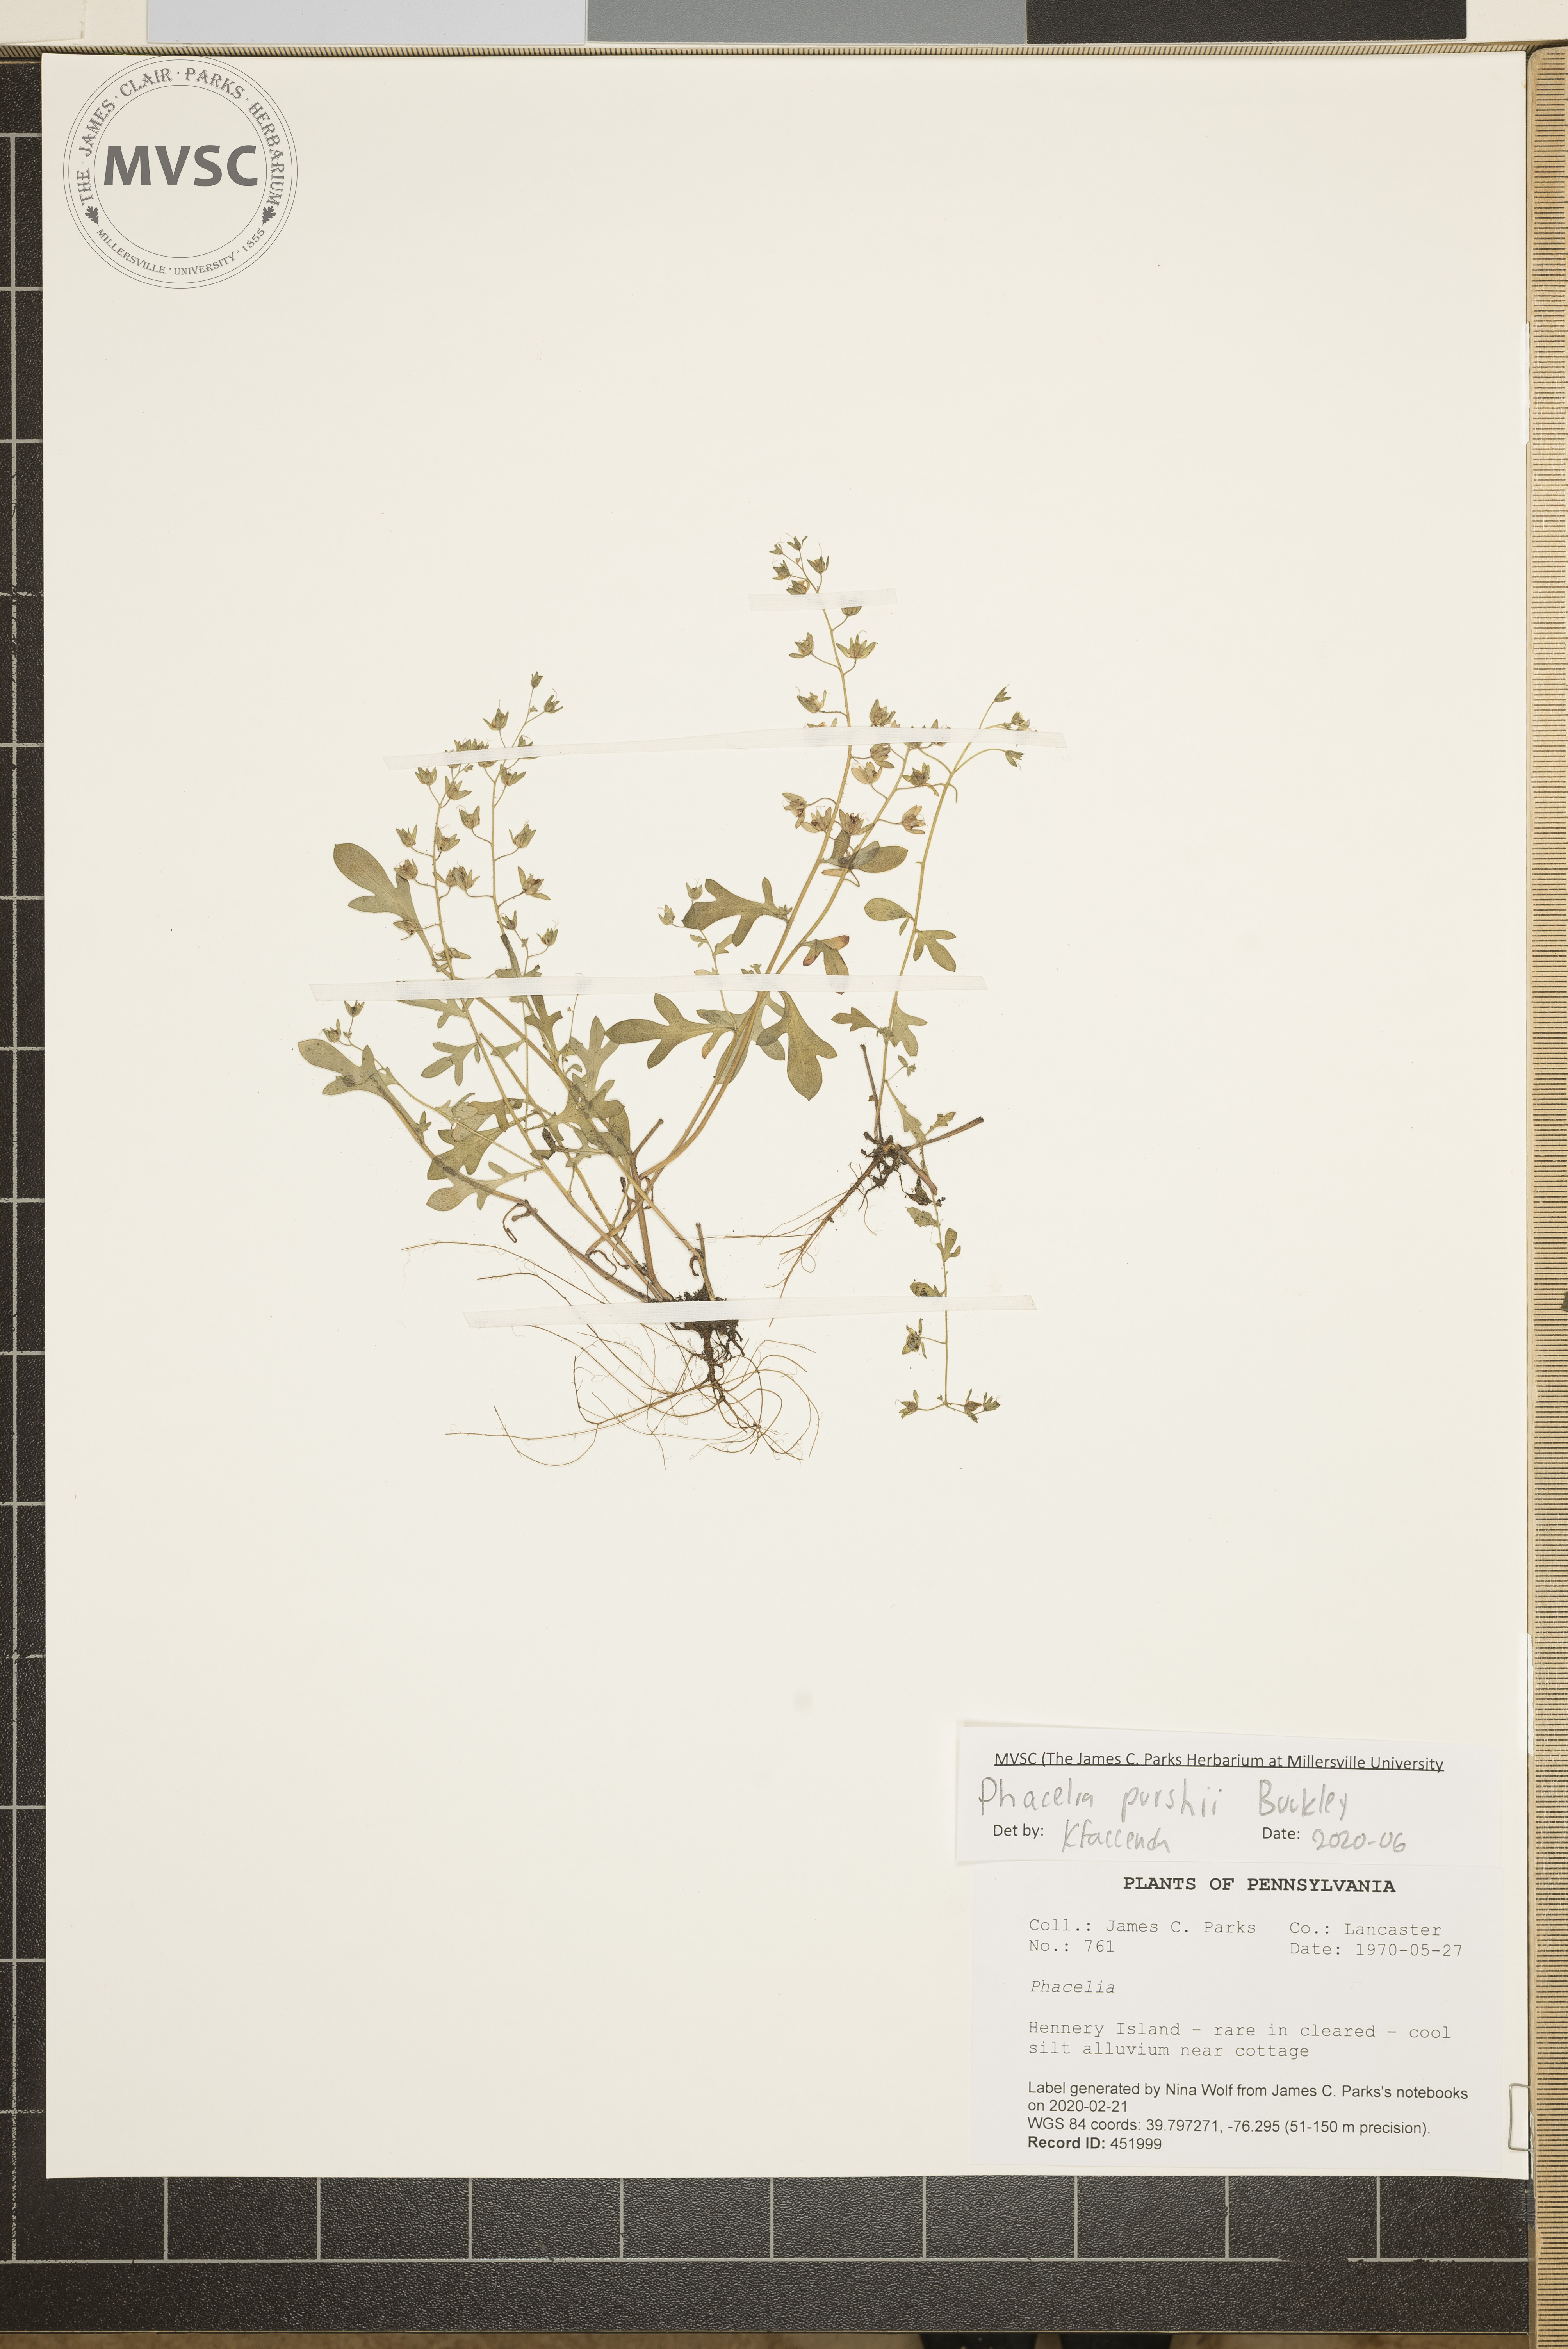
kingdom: Plantae
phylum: Tracheophyta
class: Magnoliopsida
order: Boraginales
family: Hydrophyllaceae
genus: Phacelia
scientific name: Phacelia purshii
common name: Miami-mist
